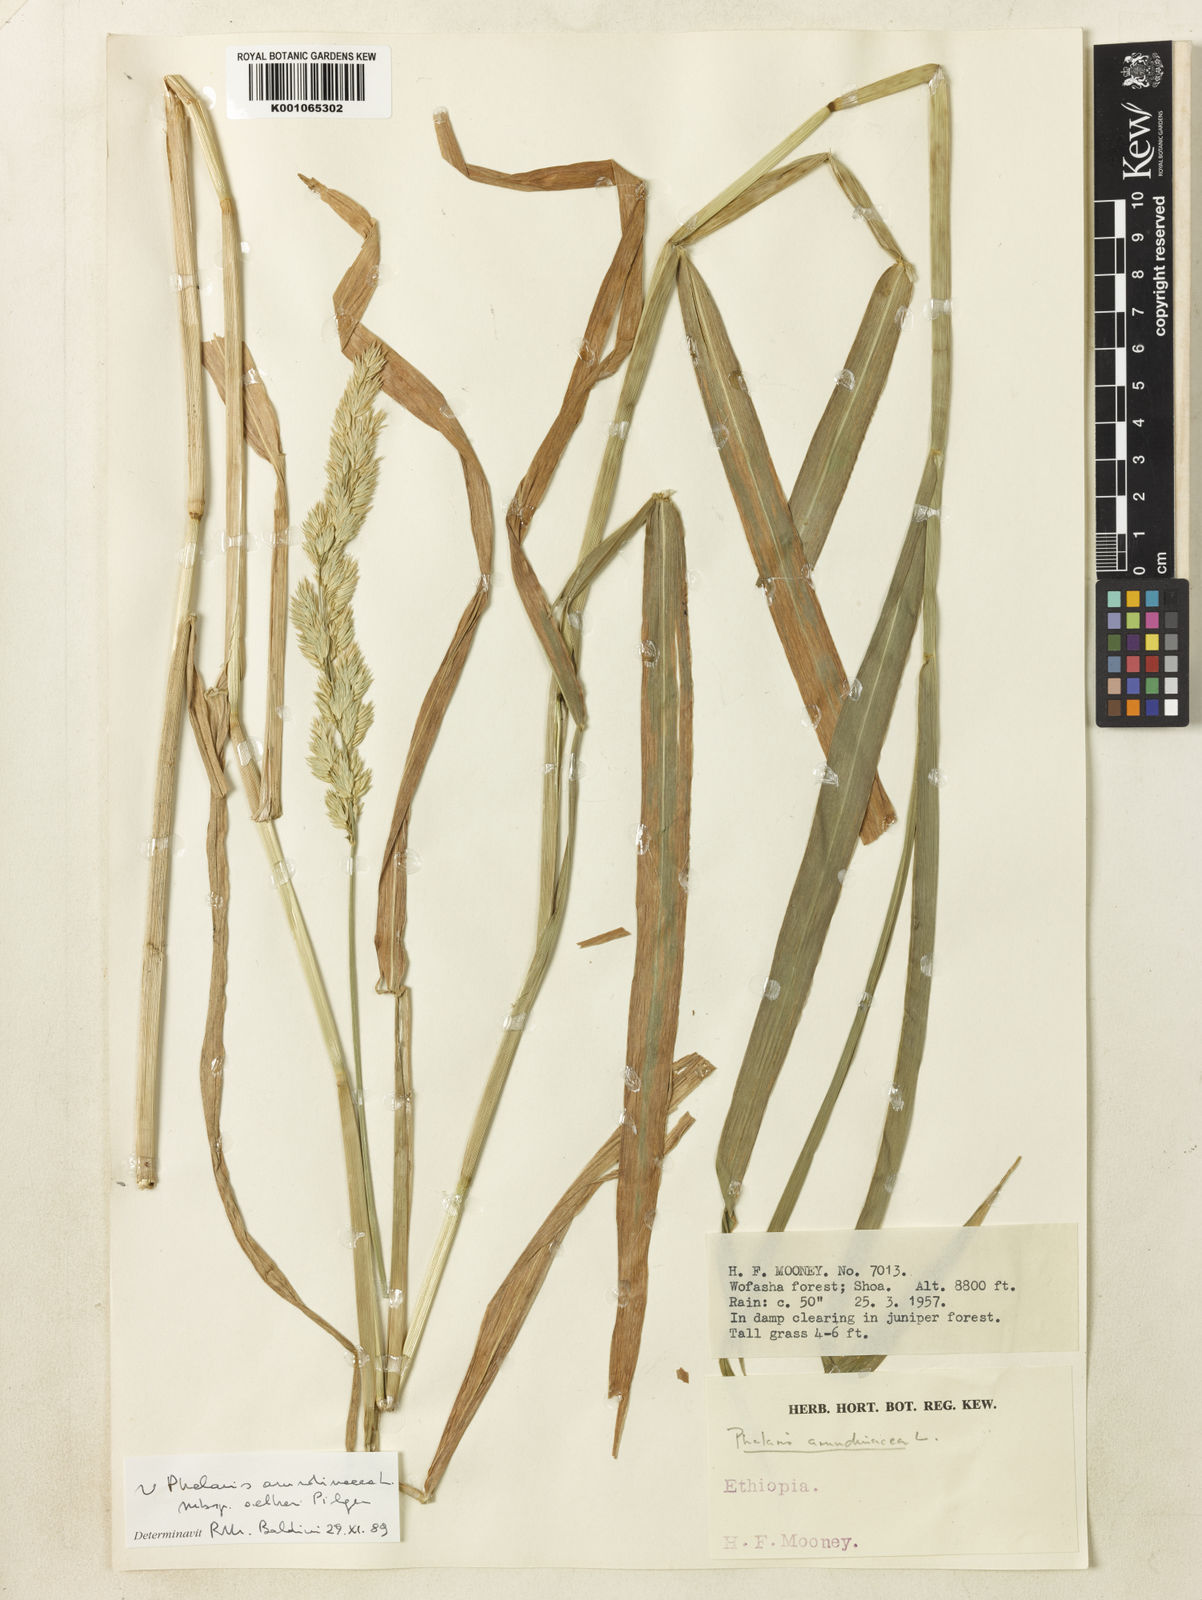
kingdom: Plantae
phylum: Tracheophyta
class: Liliopsida
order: Poales
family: Poaceae
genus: Phalaris
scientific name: Phalaris arundinacea
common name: Reed canary-grass
